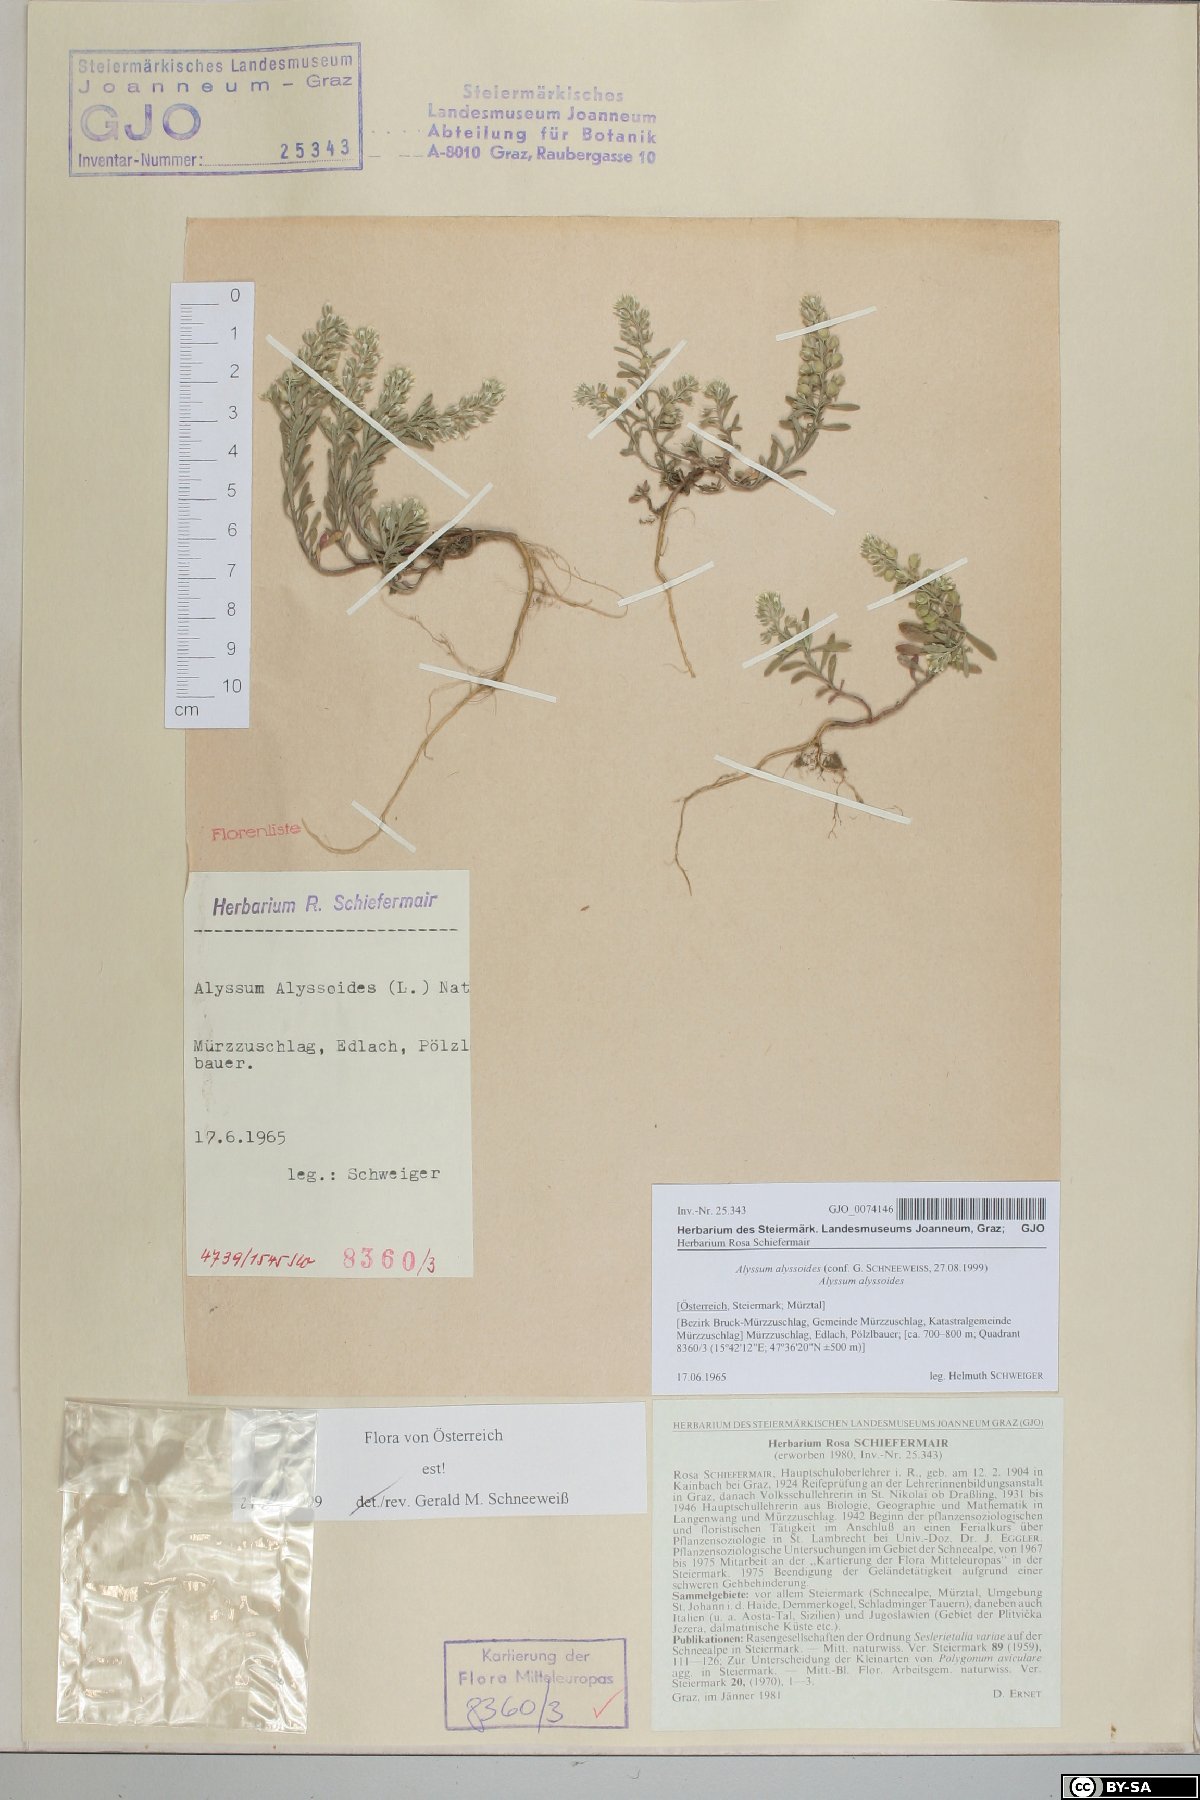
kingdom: Plantae
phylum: Tracheophyta
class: Magnoliopsida
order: Brassicales
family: Brassicaceae
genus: Alyssum
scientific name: Alyssum alyssoides
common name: Small alison
